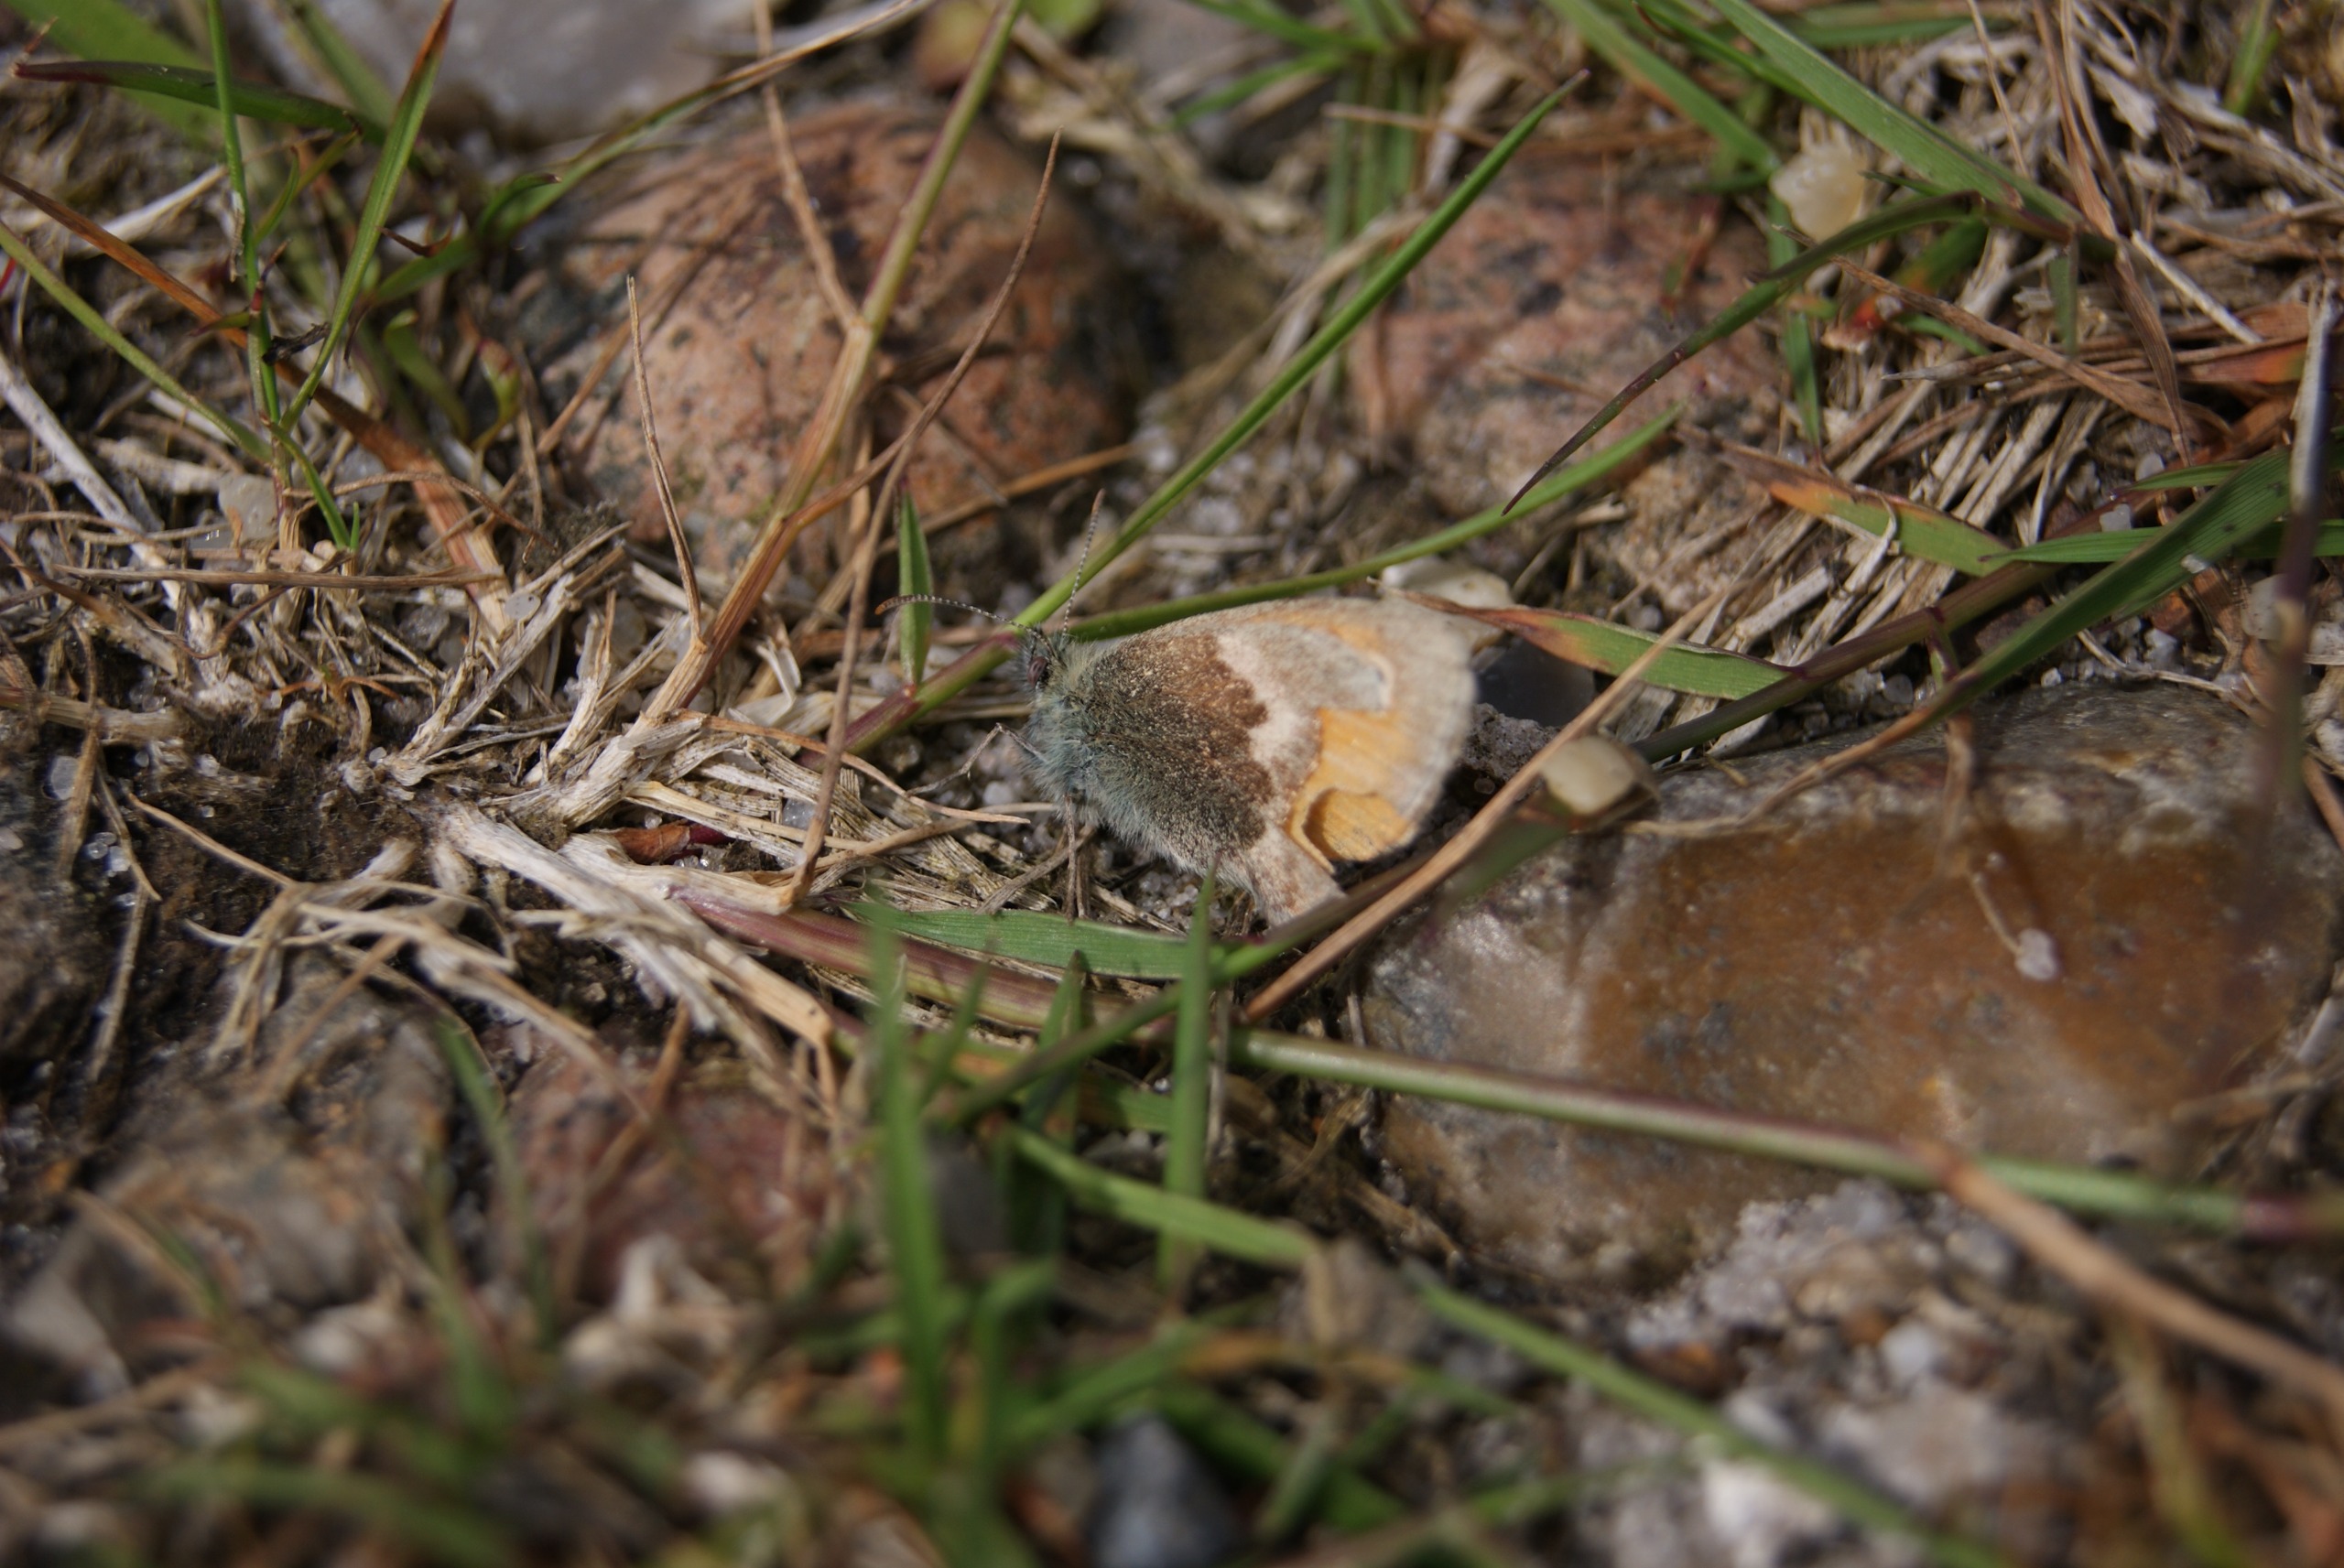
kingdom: Animalia
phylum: Arthropoda
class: Insecta
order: Lepidoptera
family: Nymphalidae
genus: Coenonympha
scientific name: Coenonympha pamphilus
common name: Okkergul randøje
